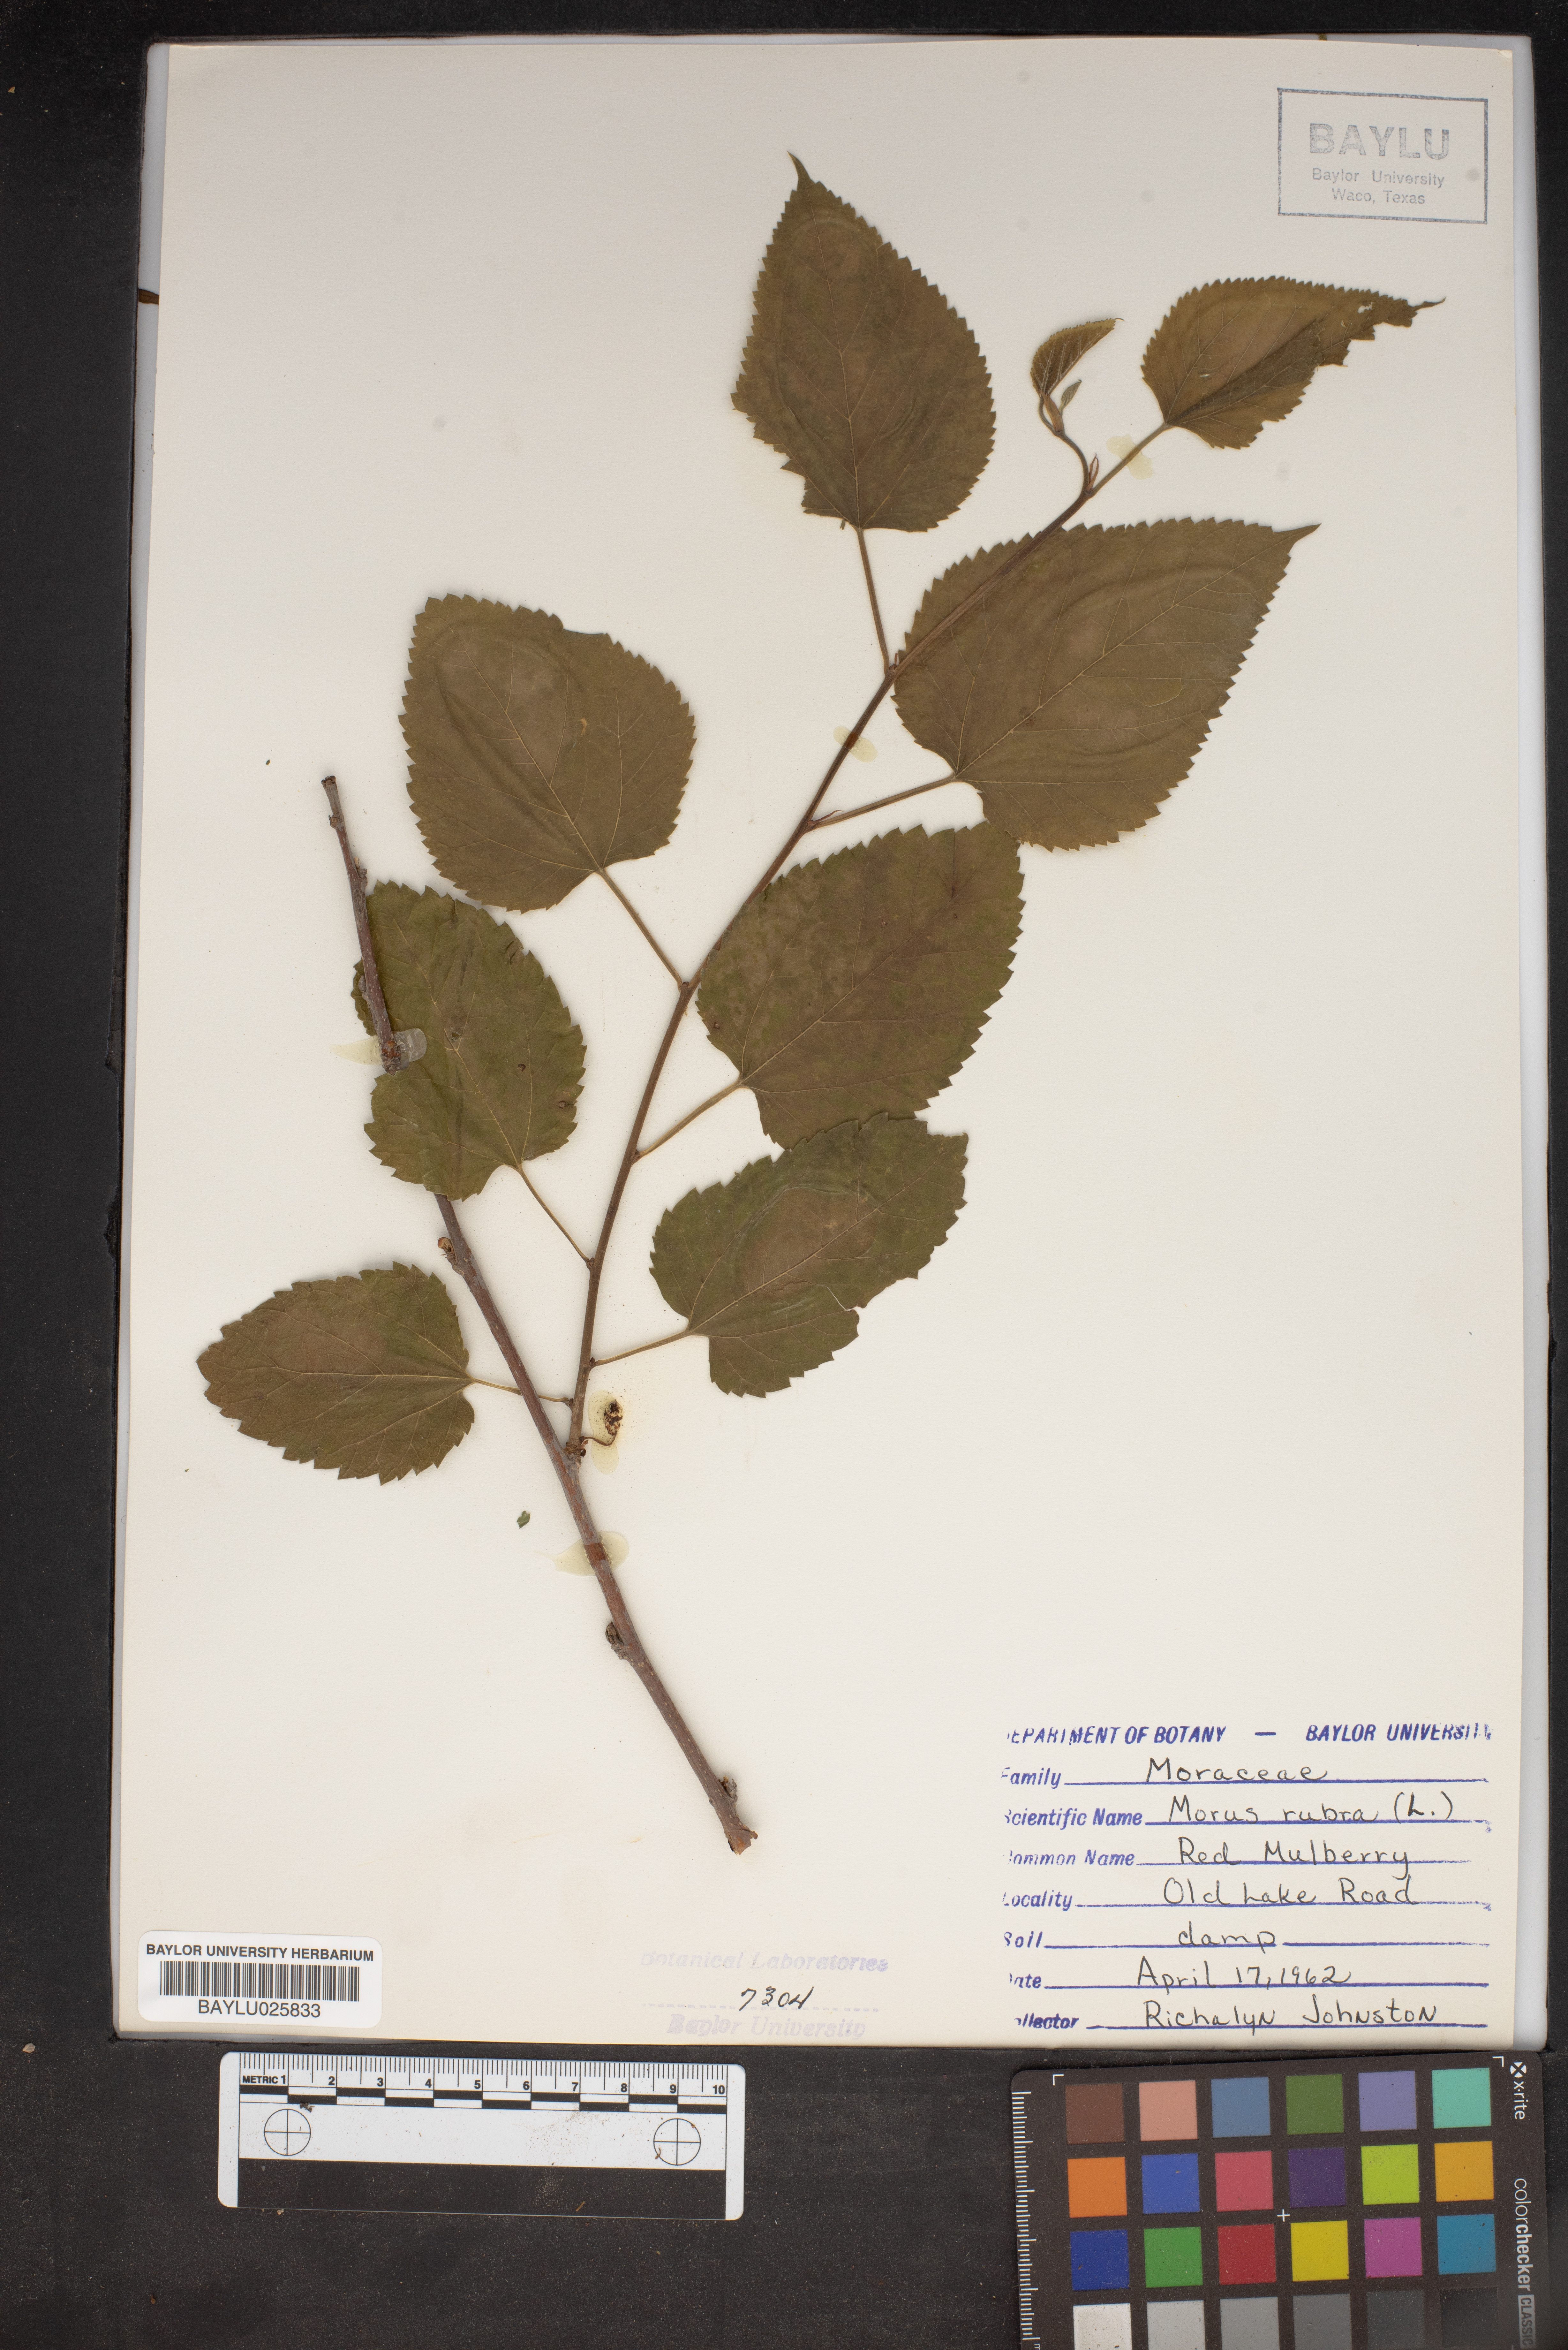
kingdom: Plantae
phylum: Tracheophyta
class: Magnoliopsida
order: Rosales
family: Moraceae
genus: Morus
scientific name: Morus rubra
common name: Red mulberry
